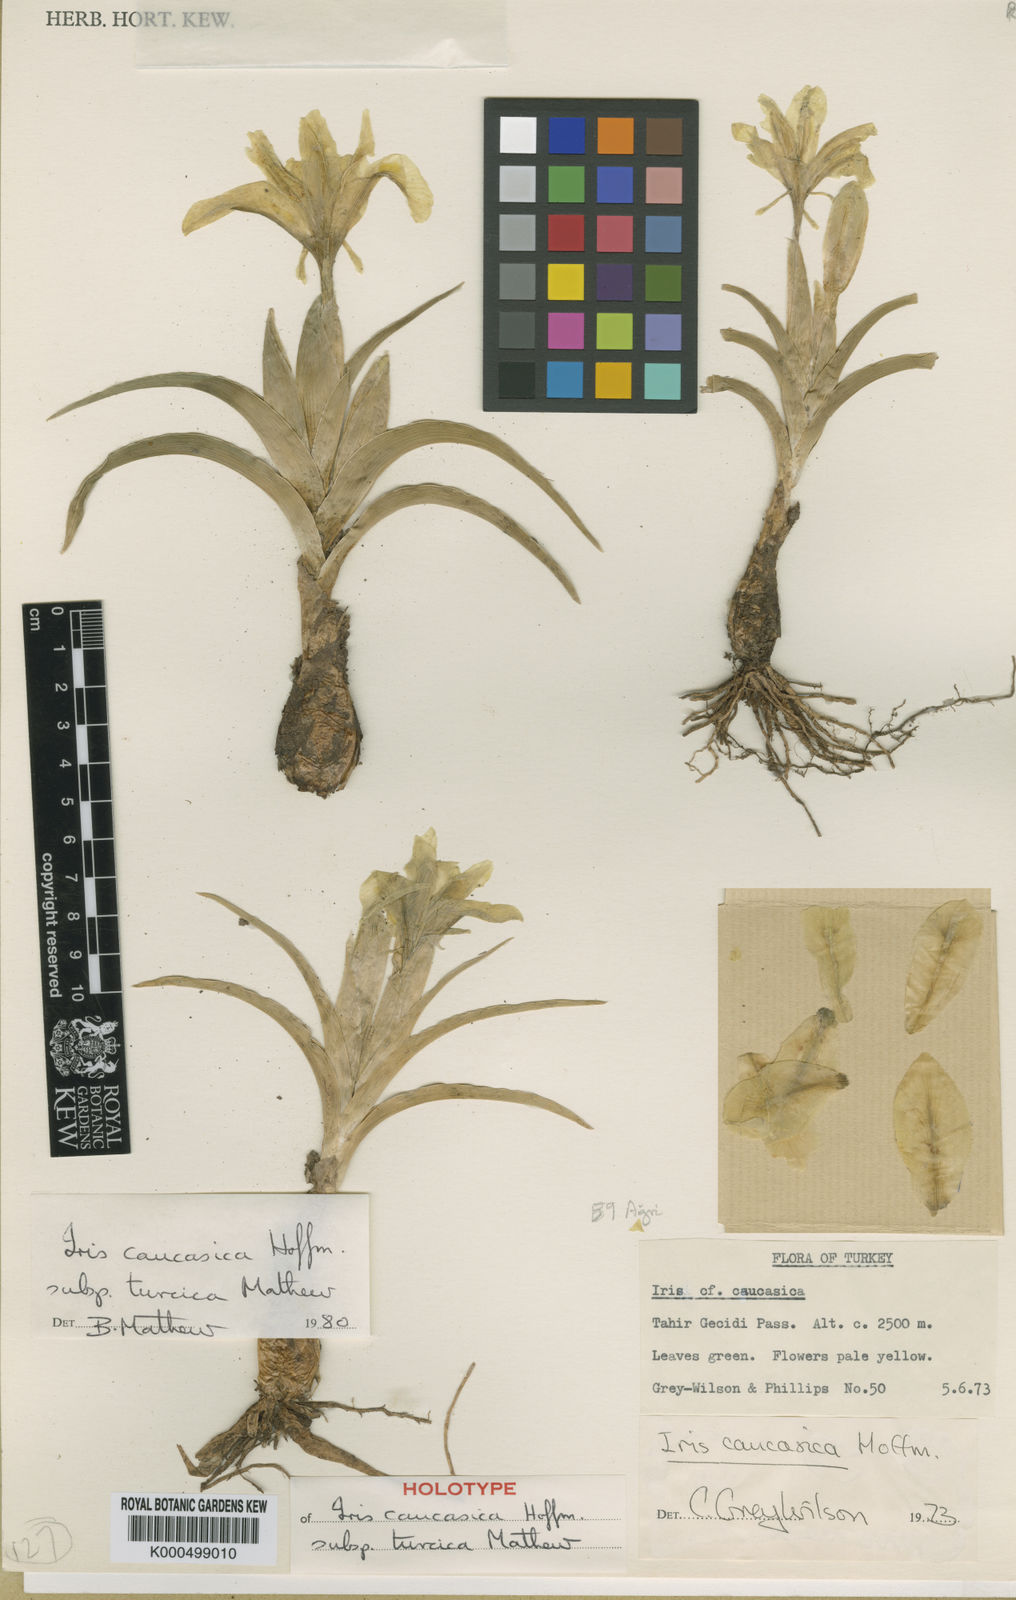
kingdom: Plantae
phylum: Tracheophyta
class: Liliopsida
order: Asparagales
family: Iridaceae
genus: Iris
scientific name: Iris caucasica
